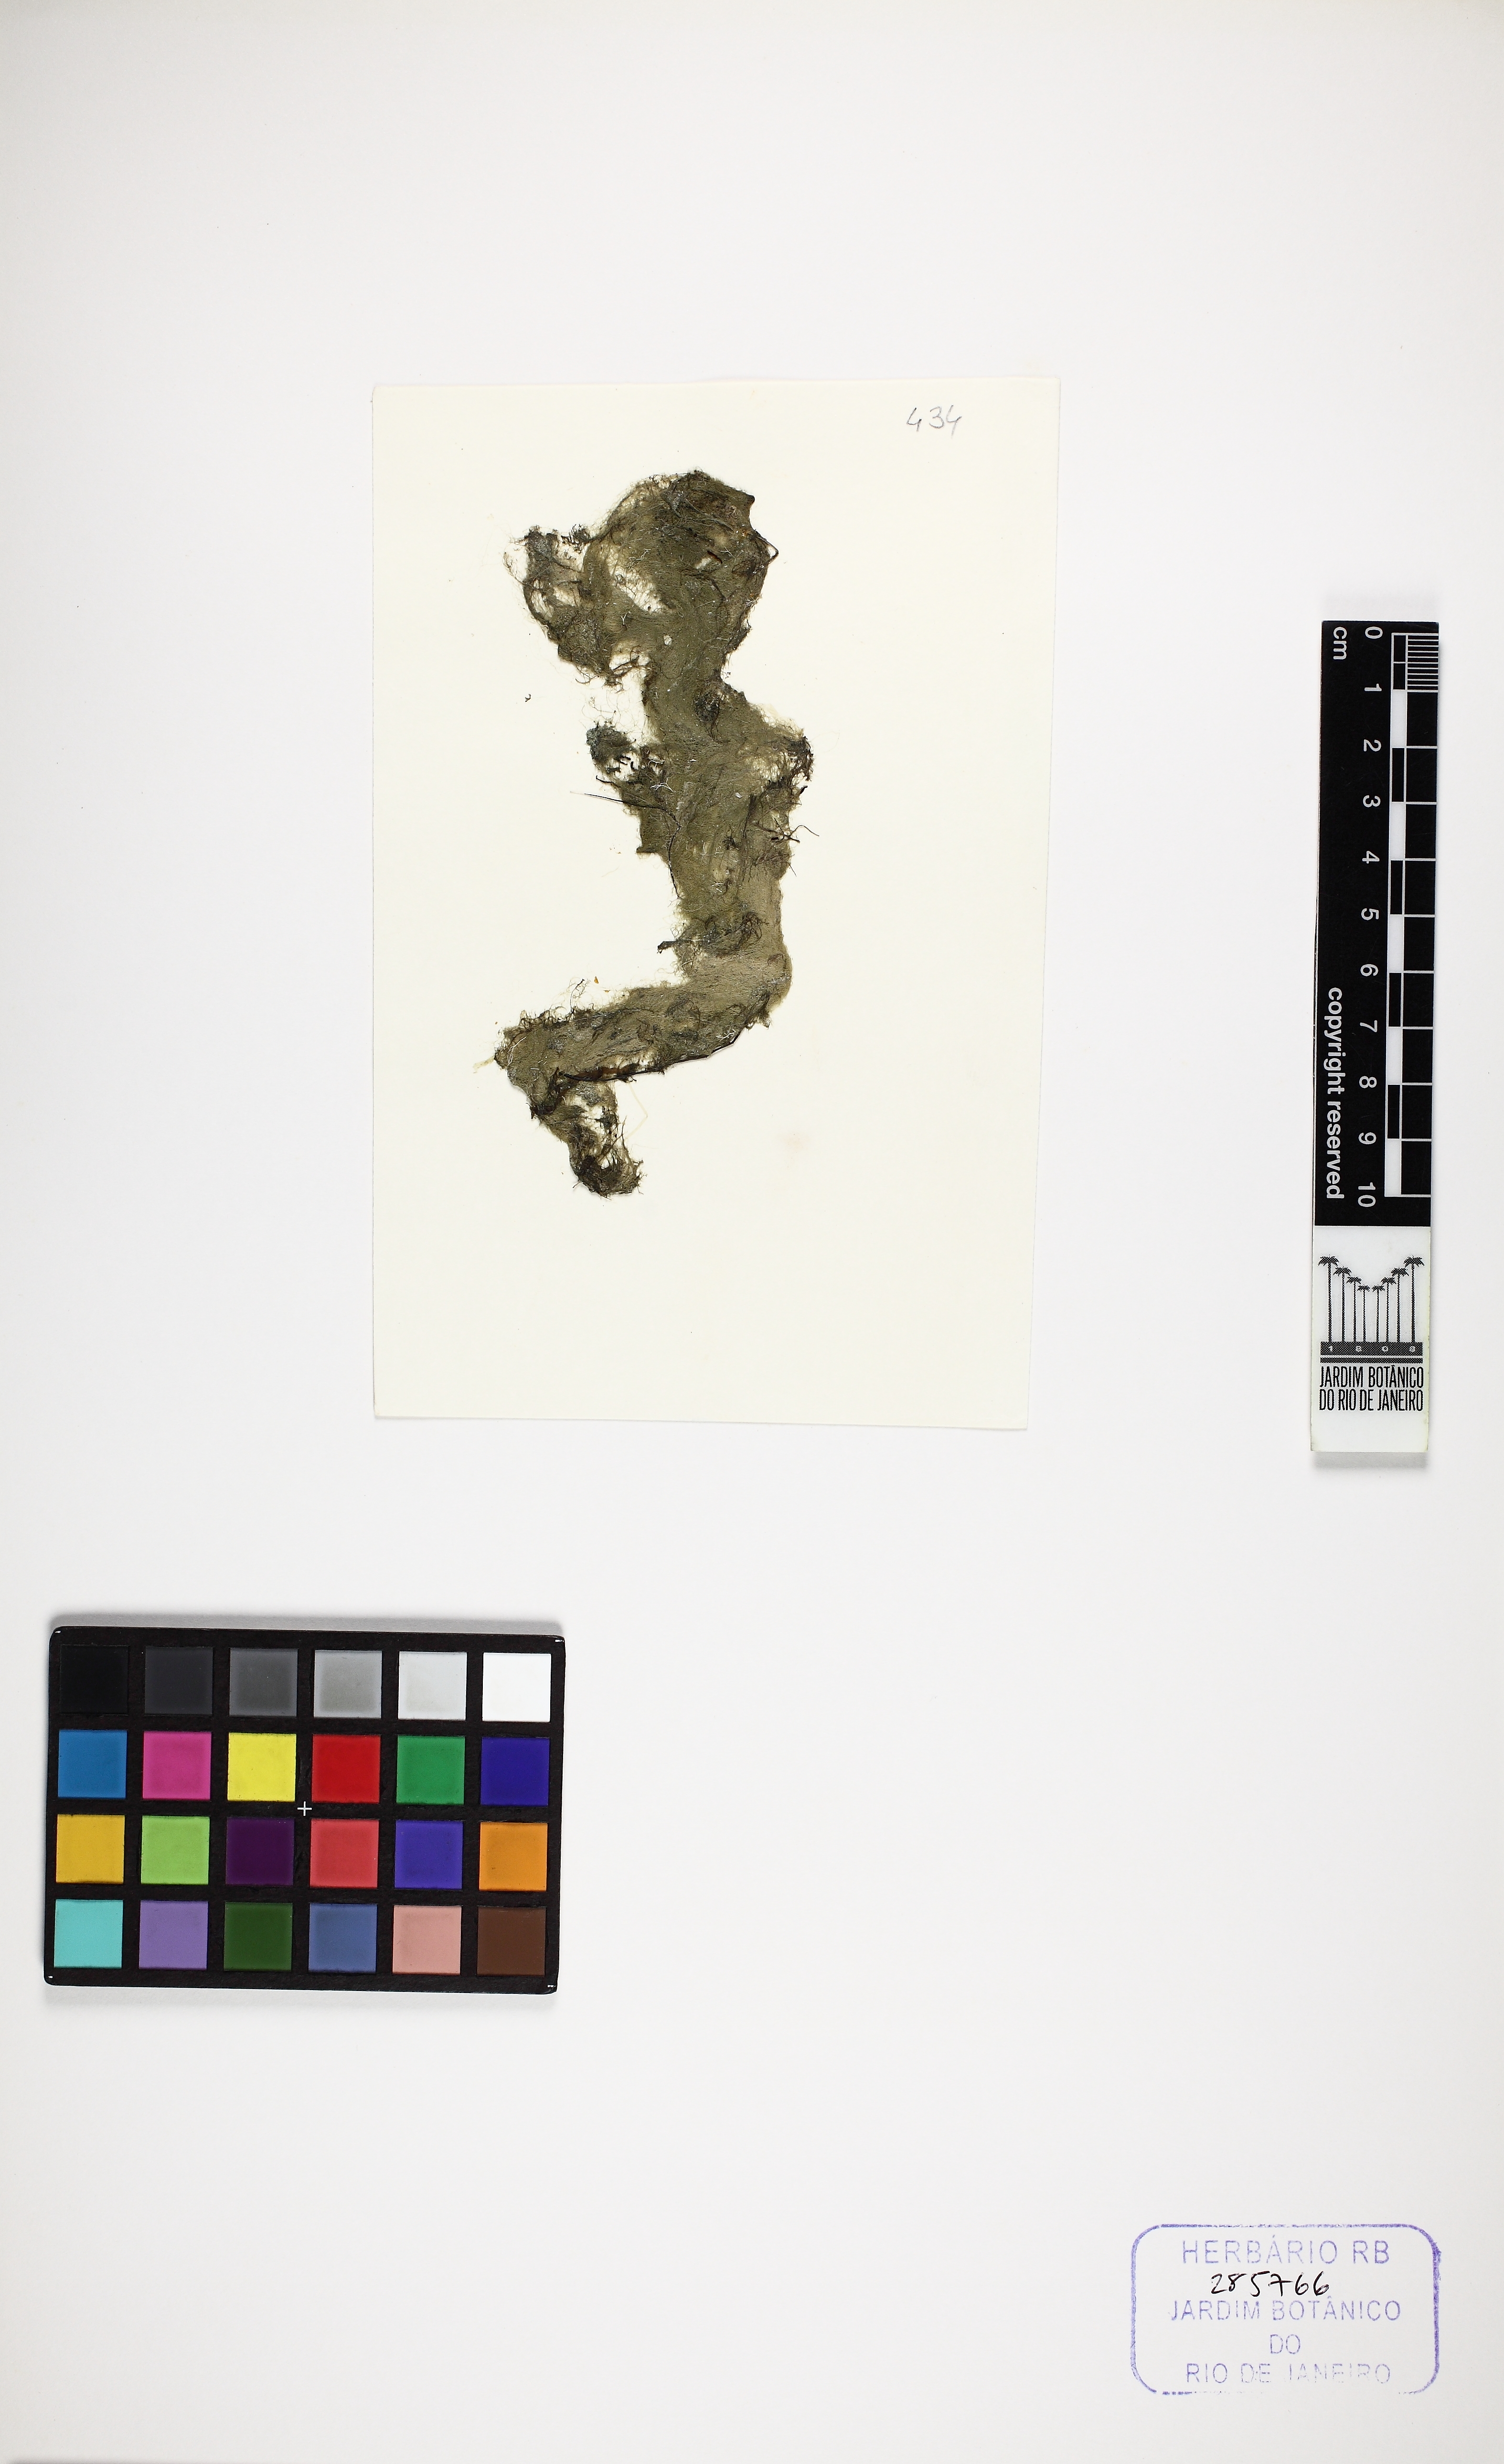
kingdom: Plantae
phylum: Chlorophyta
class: Ulvophyceae
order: Cladophorales
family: Cladophoraceae
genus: Rhizoclonium
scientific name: Rhizoclonium riparium
